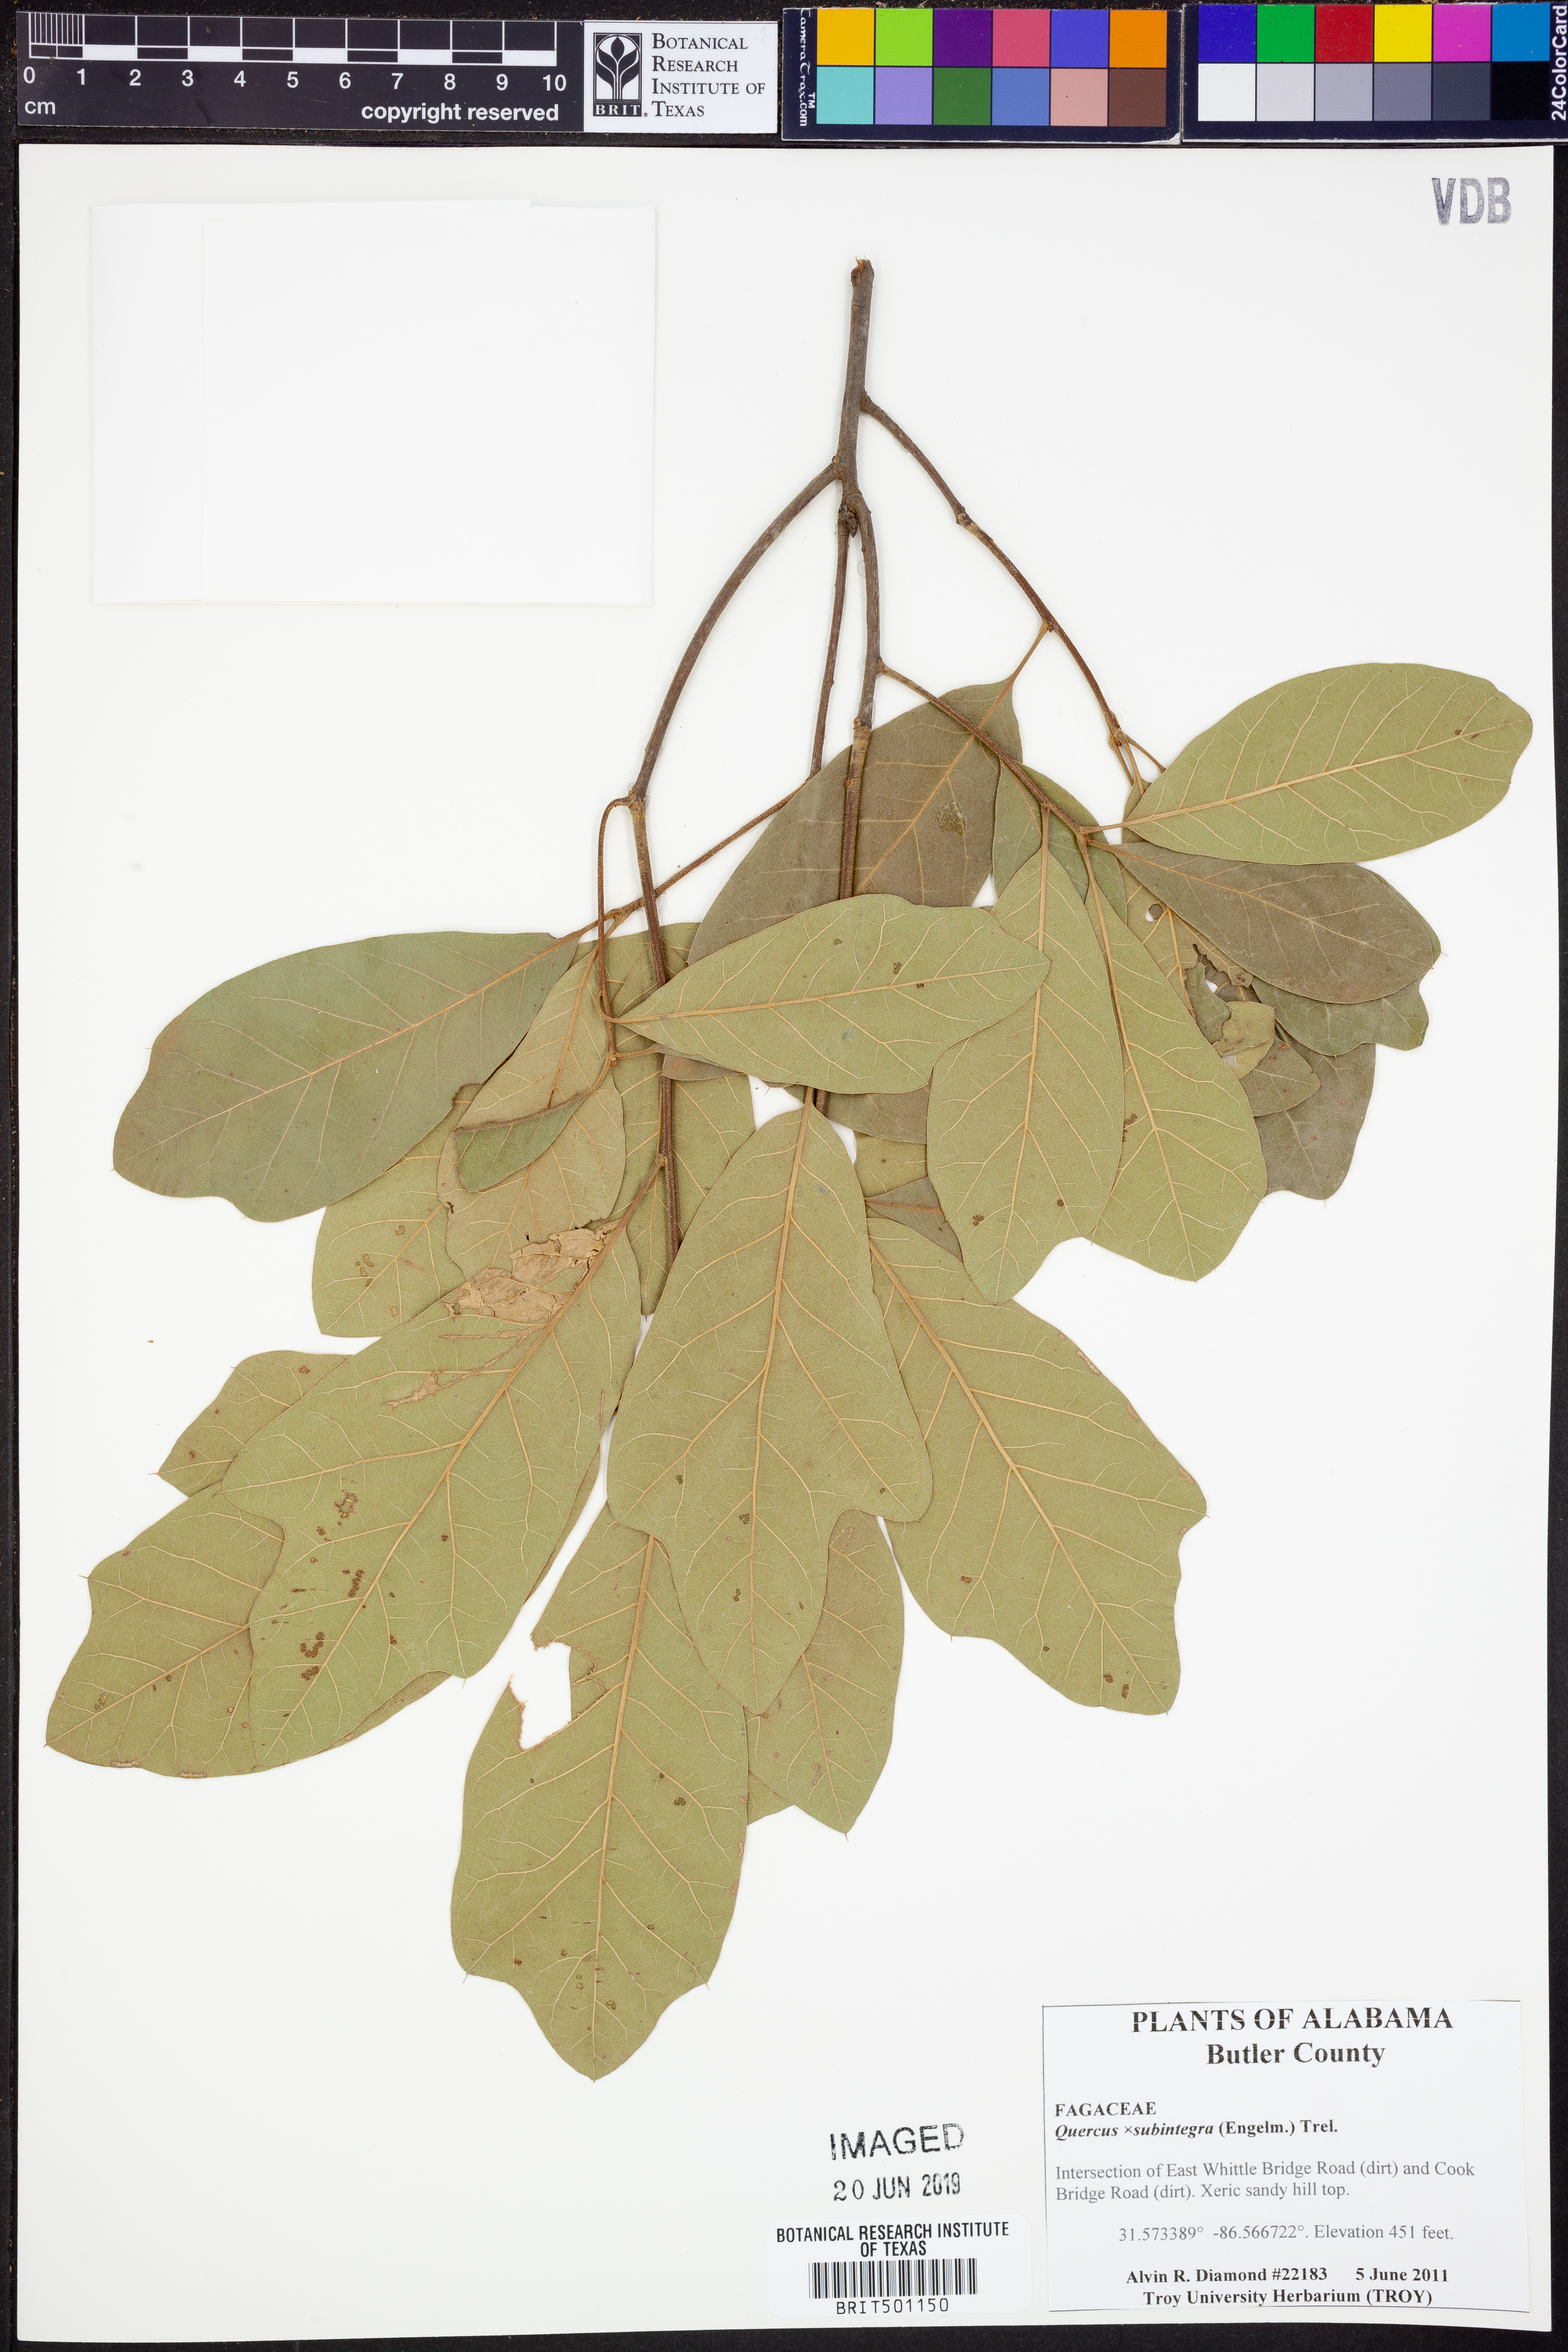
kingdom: Plantae
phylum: Tracheophyta
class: Magnoliopsida
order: Fagales
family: Fagaceae
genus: Quercus
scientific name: Quercus
